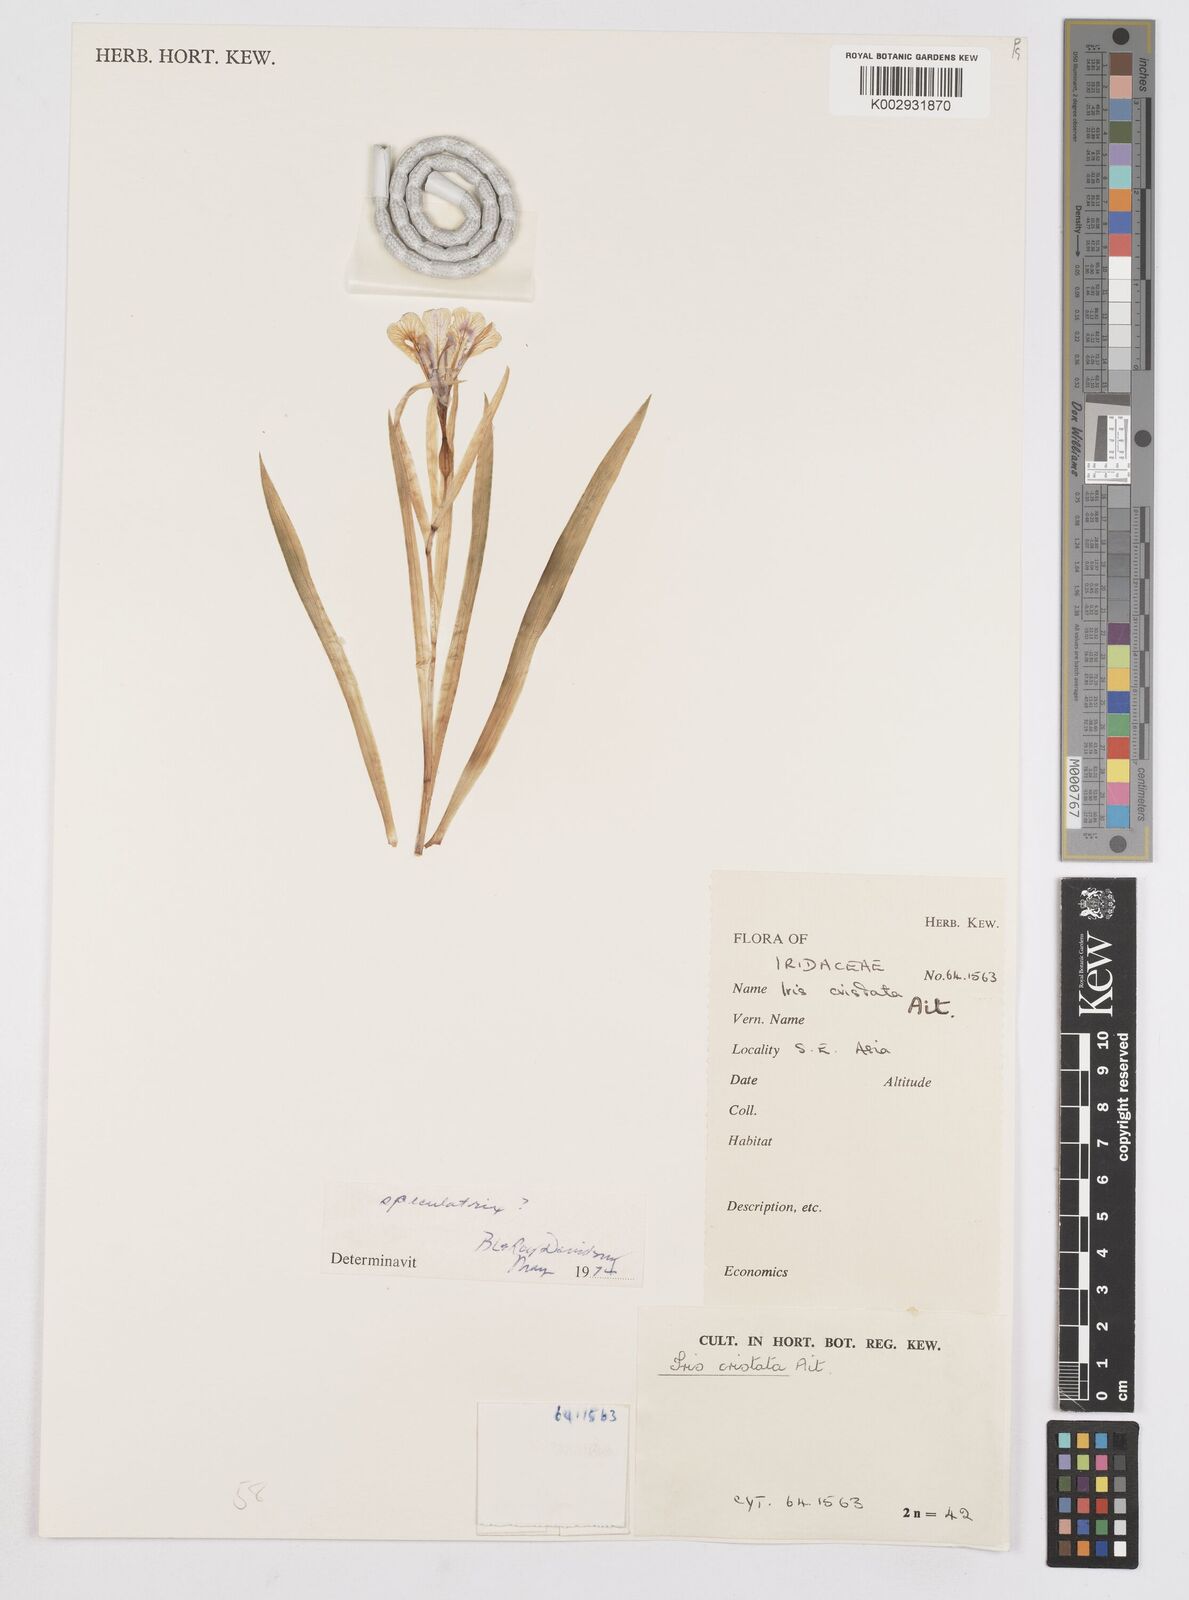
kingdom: Plantae
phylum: Tracheophyta
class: Liliopsida
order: Asparagales
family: Iridaceae
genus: Iris
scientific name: Iris cristata
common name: Crested iris
